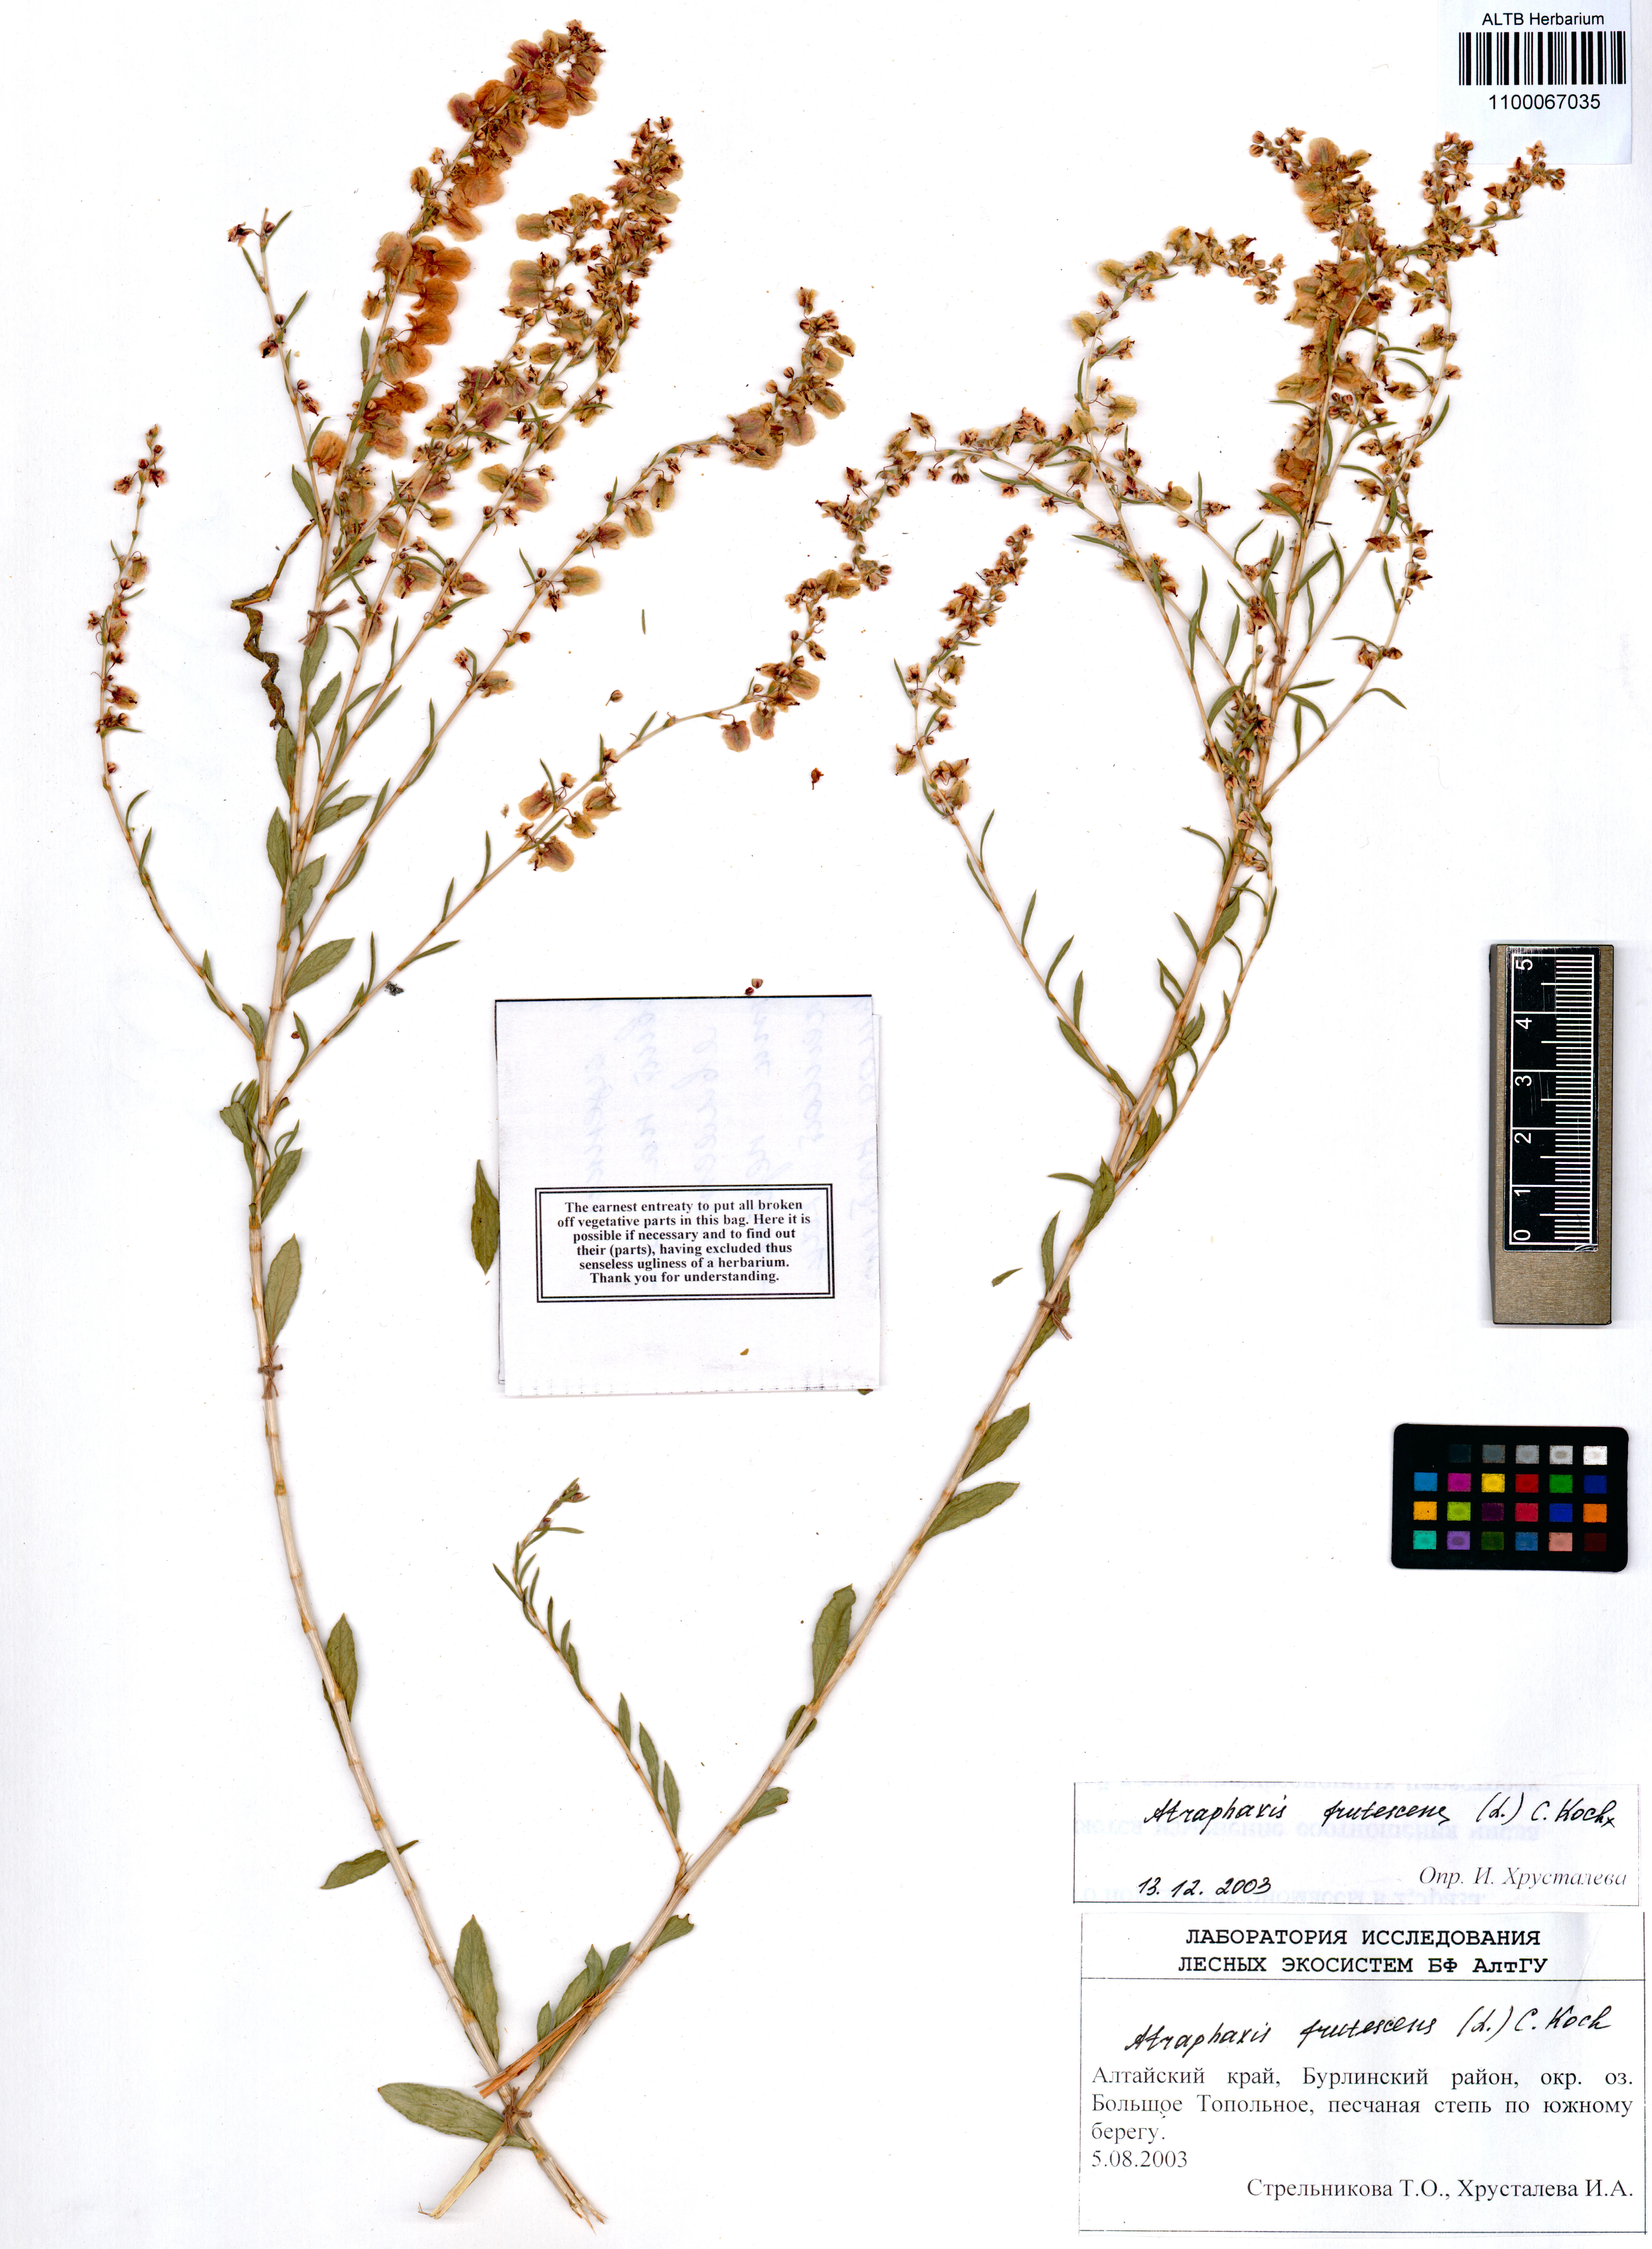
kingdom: Plantae
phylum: Tracheophyta
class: Magnoliopsida
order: Caryophyllales
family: Polygonaceae
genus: Atraphaxis
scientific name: Atraphaxis frutescens
